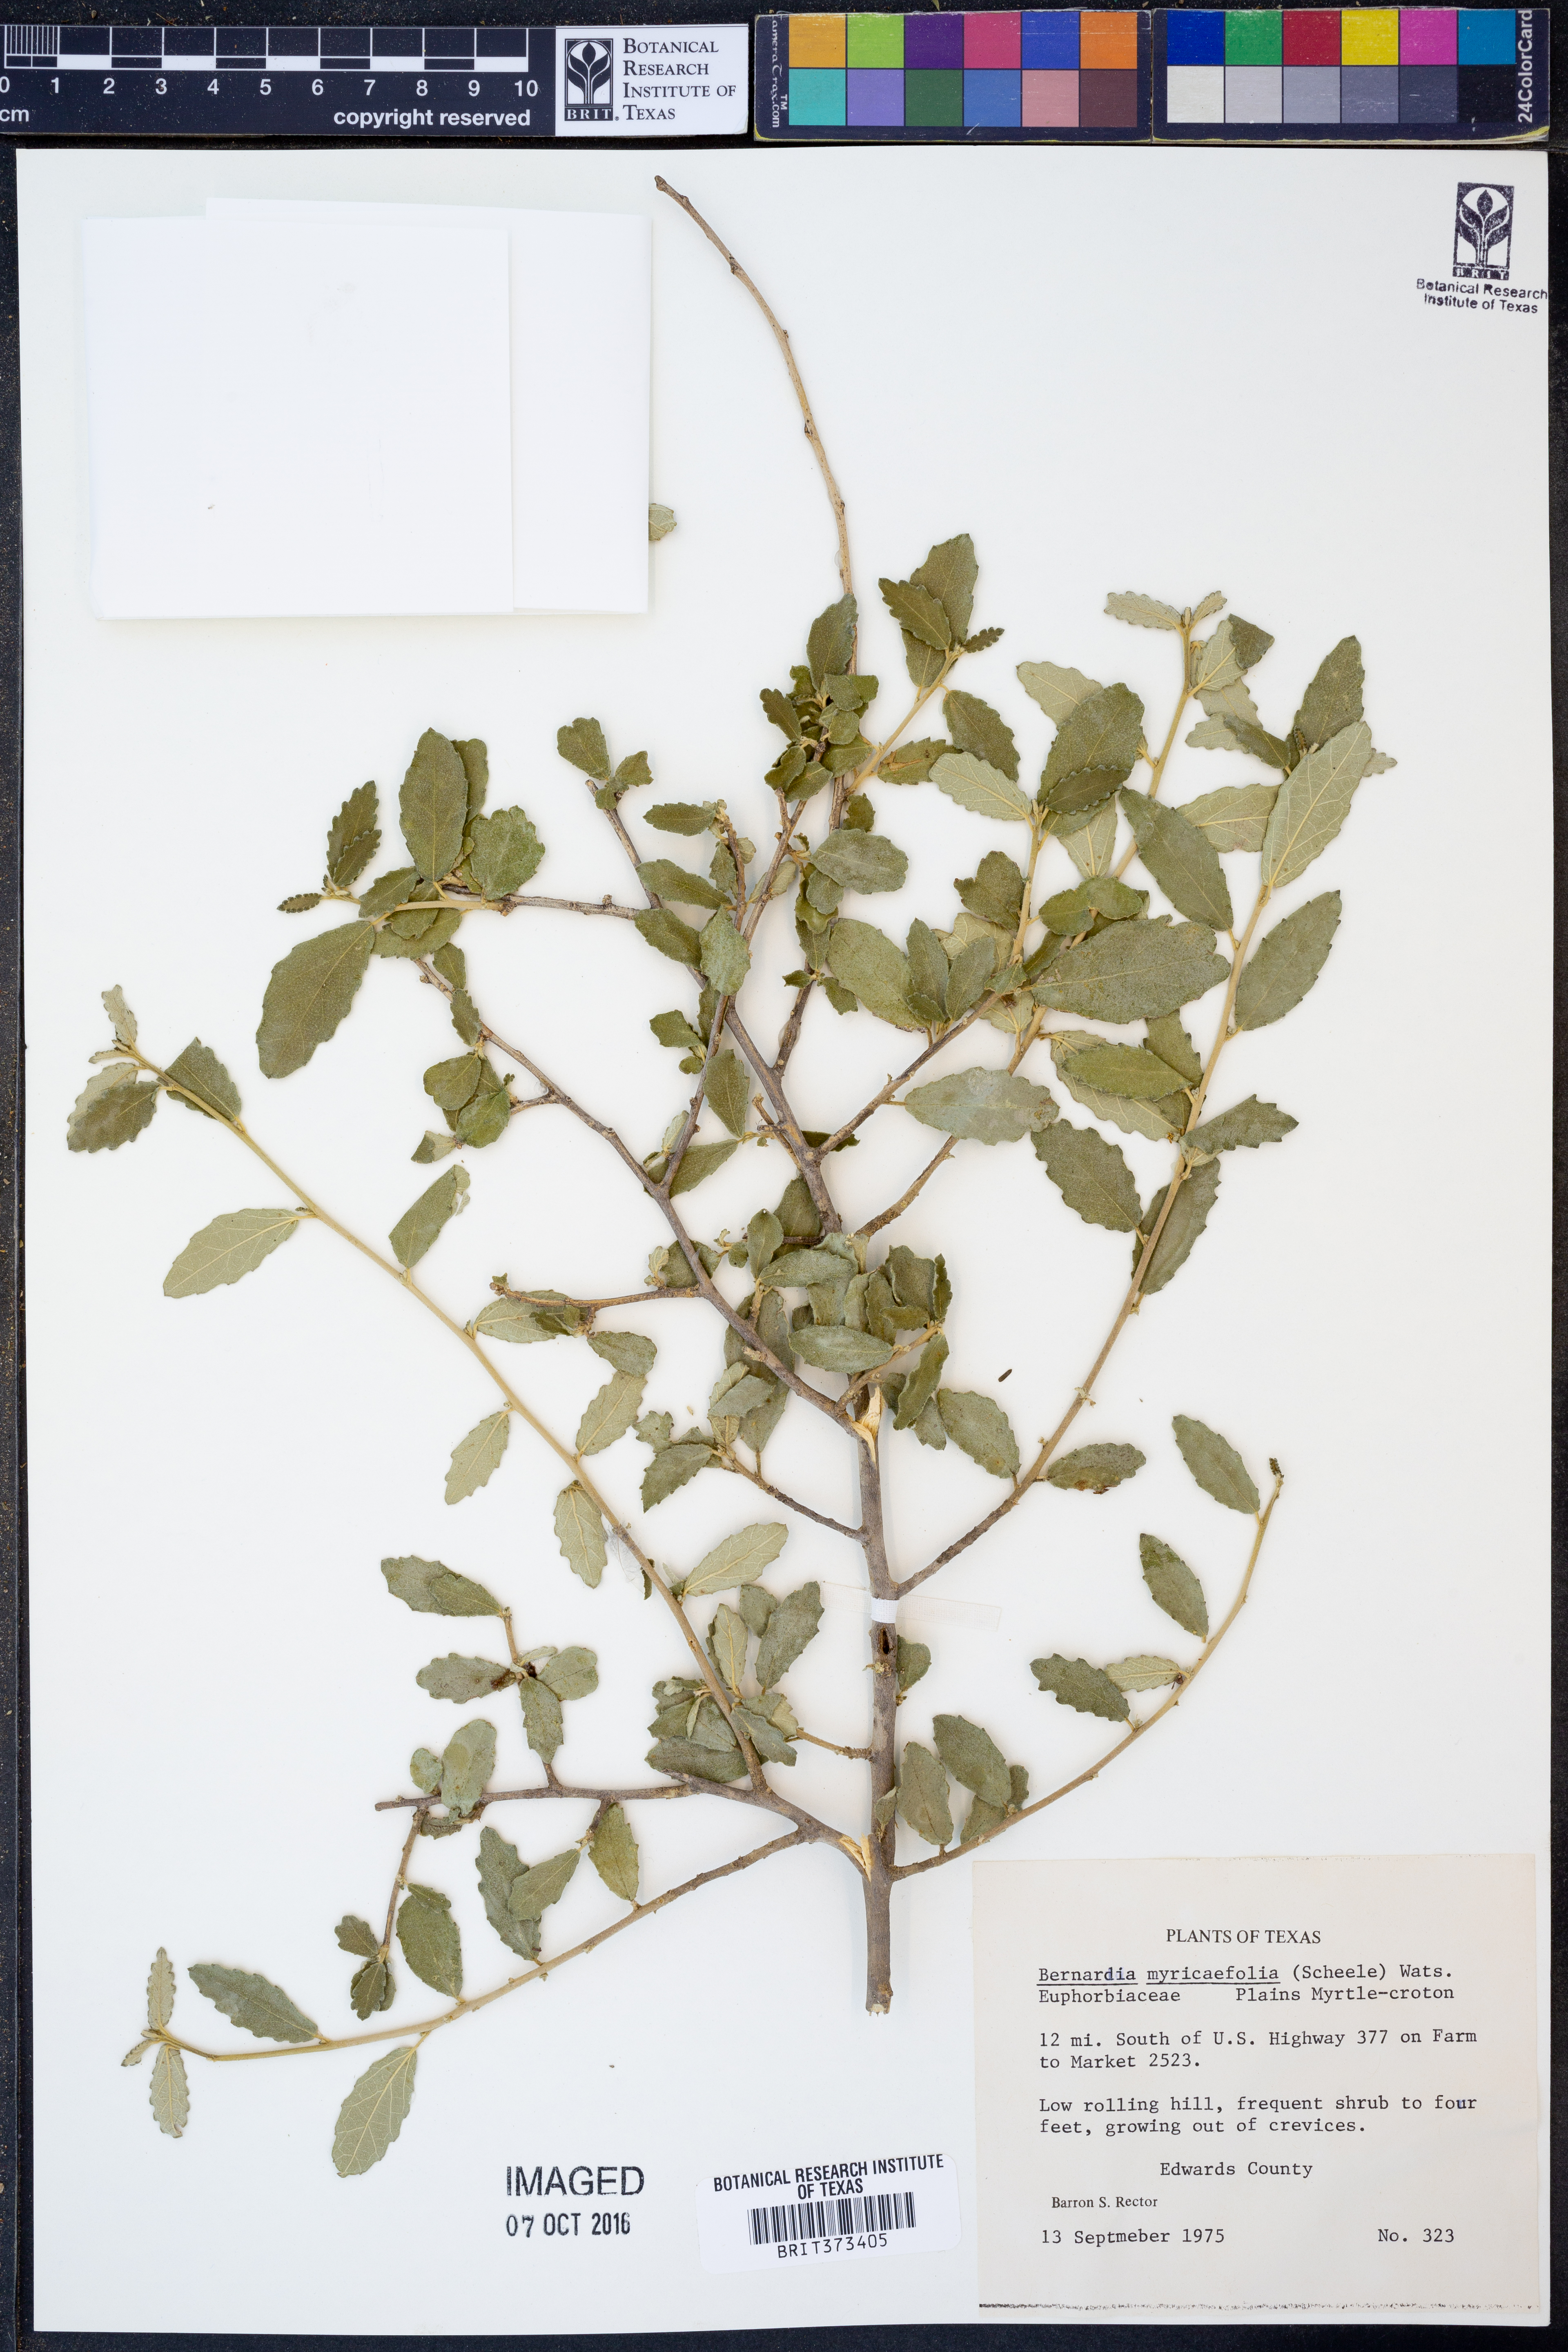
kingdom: Plantae
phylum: Tracheophyta
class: Magnoliopsida
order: Malpighiales
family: Euphorbiaceae
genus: Bernardia
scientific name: Bernardia myricifolia
